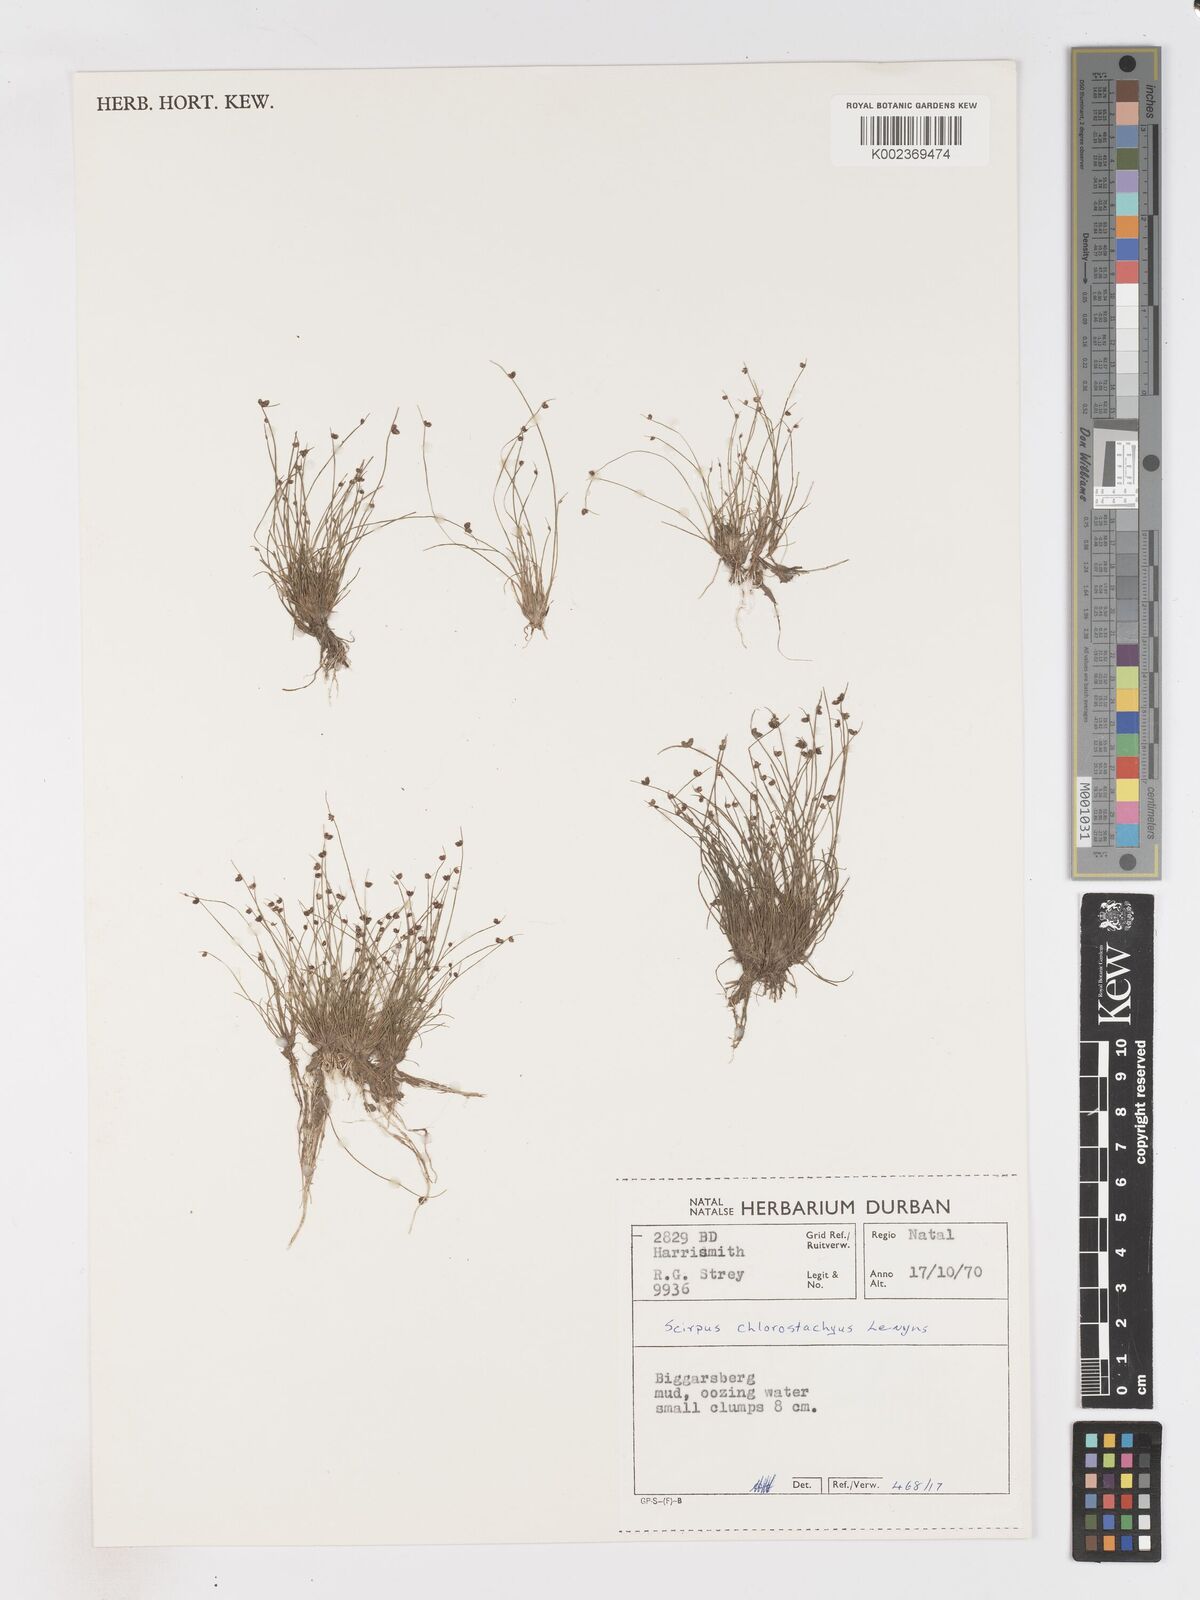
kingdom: Plantae
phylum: Tracheophyta
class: Liliopsida
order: Poales
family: Cyperaceae
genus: Isolepis
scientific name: Isolepis sepulcralis
